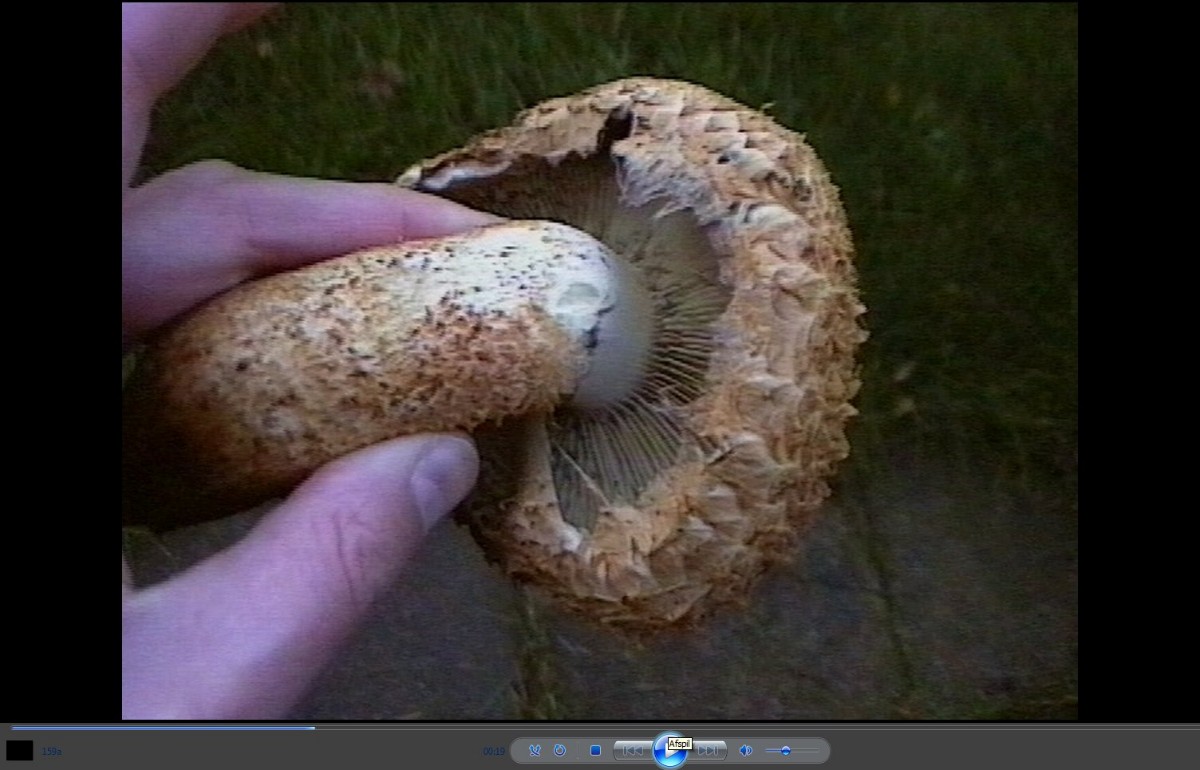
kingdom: Fungi
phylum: Basidiomycota
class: Agaricomycetes
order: Agaricales
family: Strophariaceae
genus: Pholiota
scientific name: Pholiota squarrosa
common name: krumskællet skælhat
